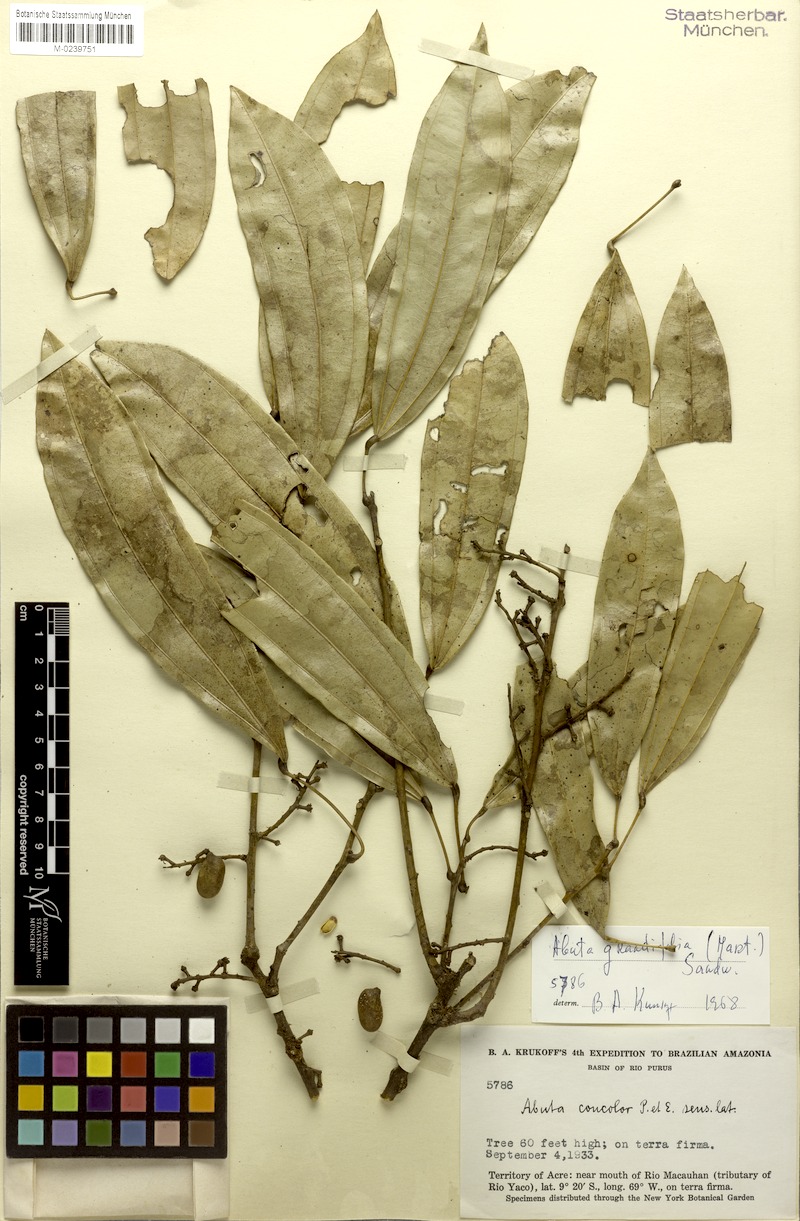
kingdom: Plantae
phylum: Tracheophyta
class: Magnoliopsida
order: Ranunculales
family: Menispermaceae
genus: Abuta
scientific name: Abuta grandifolia
